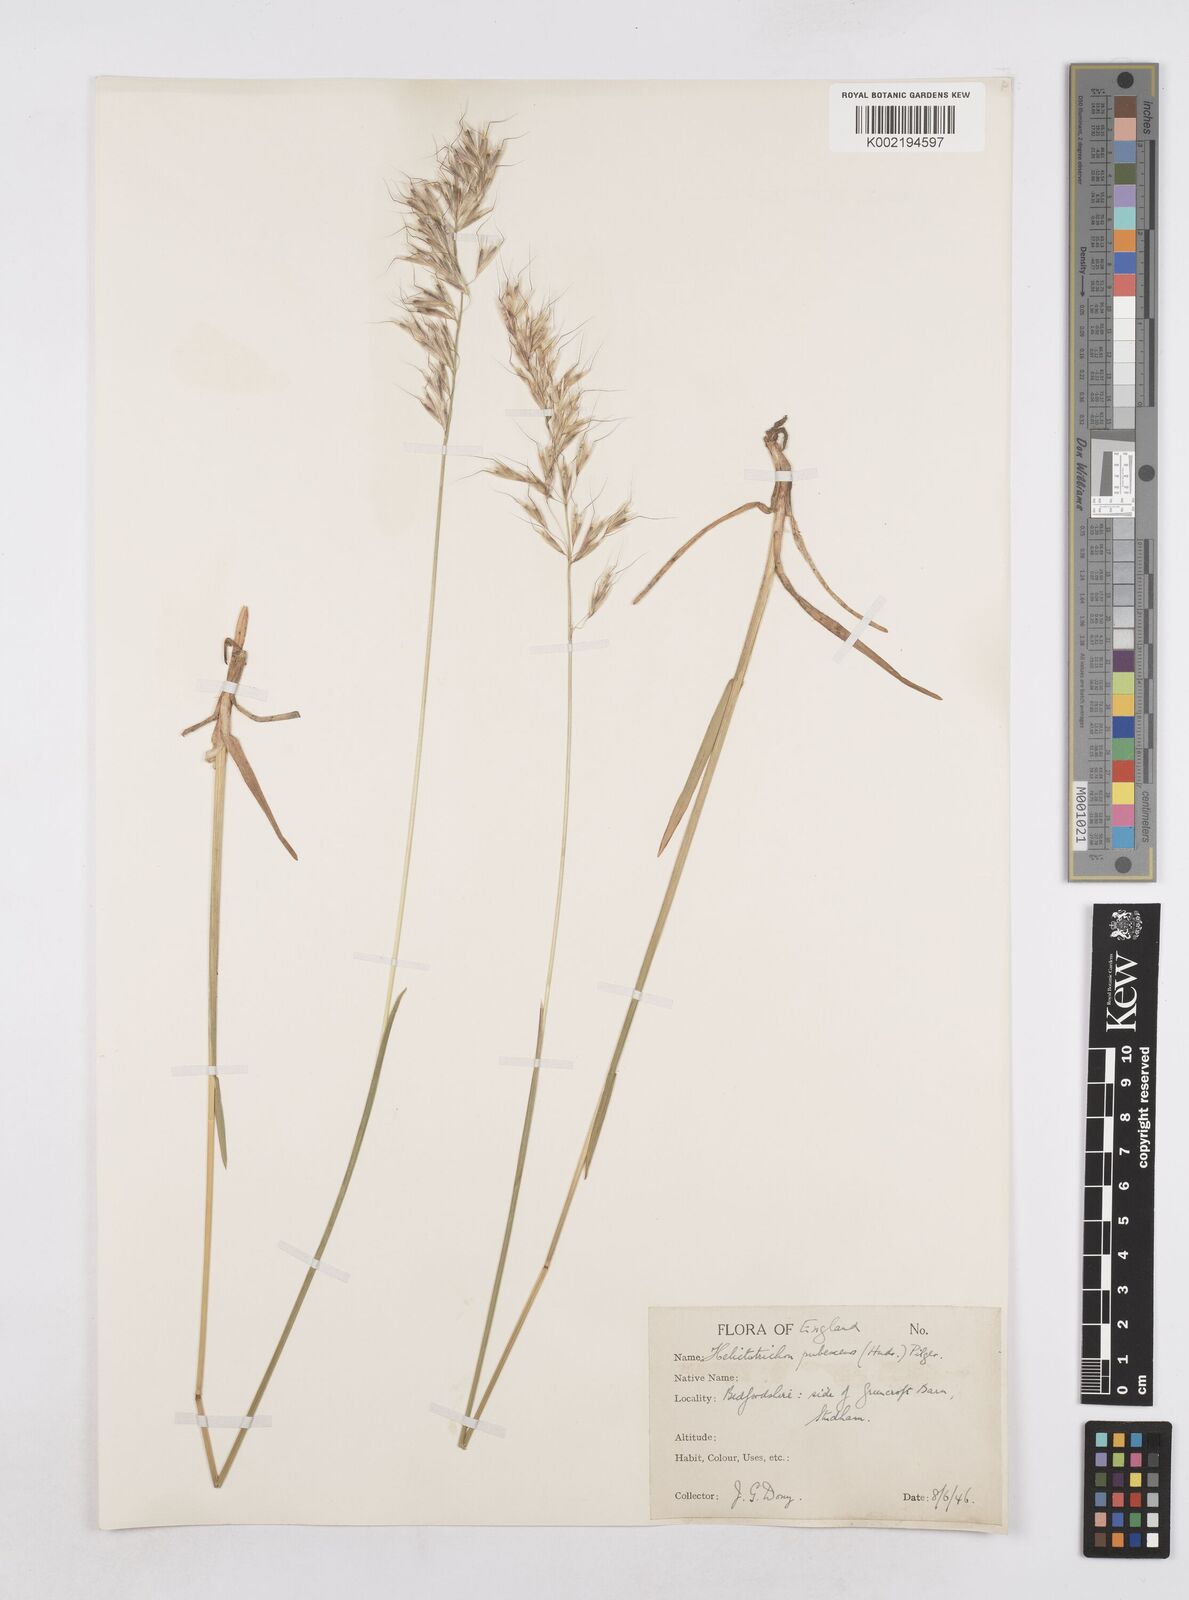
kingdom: Plantae
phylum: Tracheophyta
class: Liliopsida
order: Poales
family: Poaceae
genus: Avenula
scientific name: Avenula pubescens
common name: Downy alpine oatgrass
